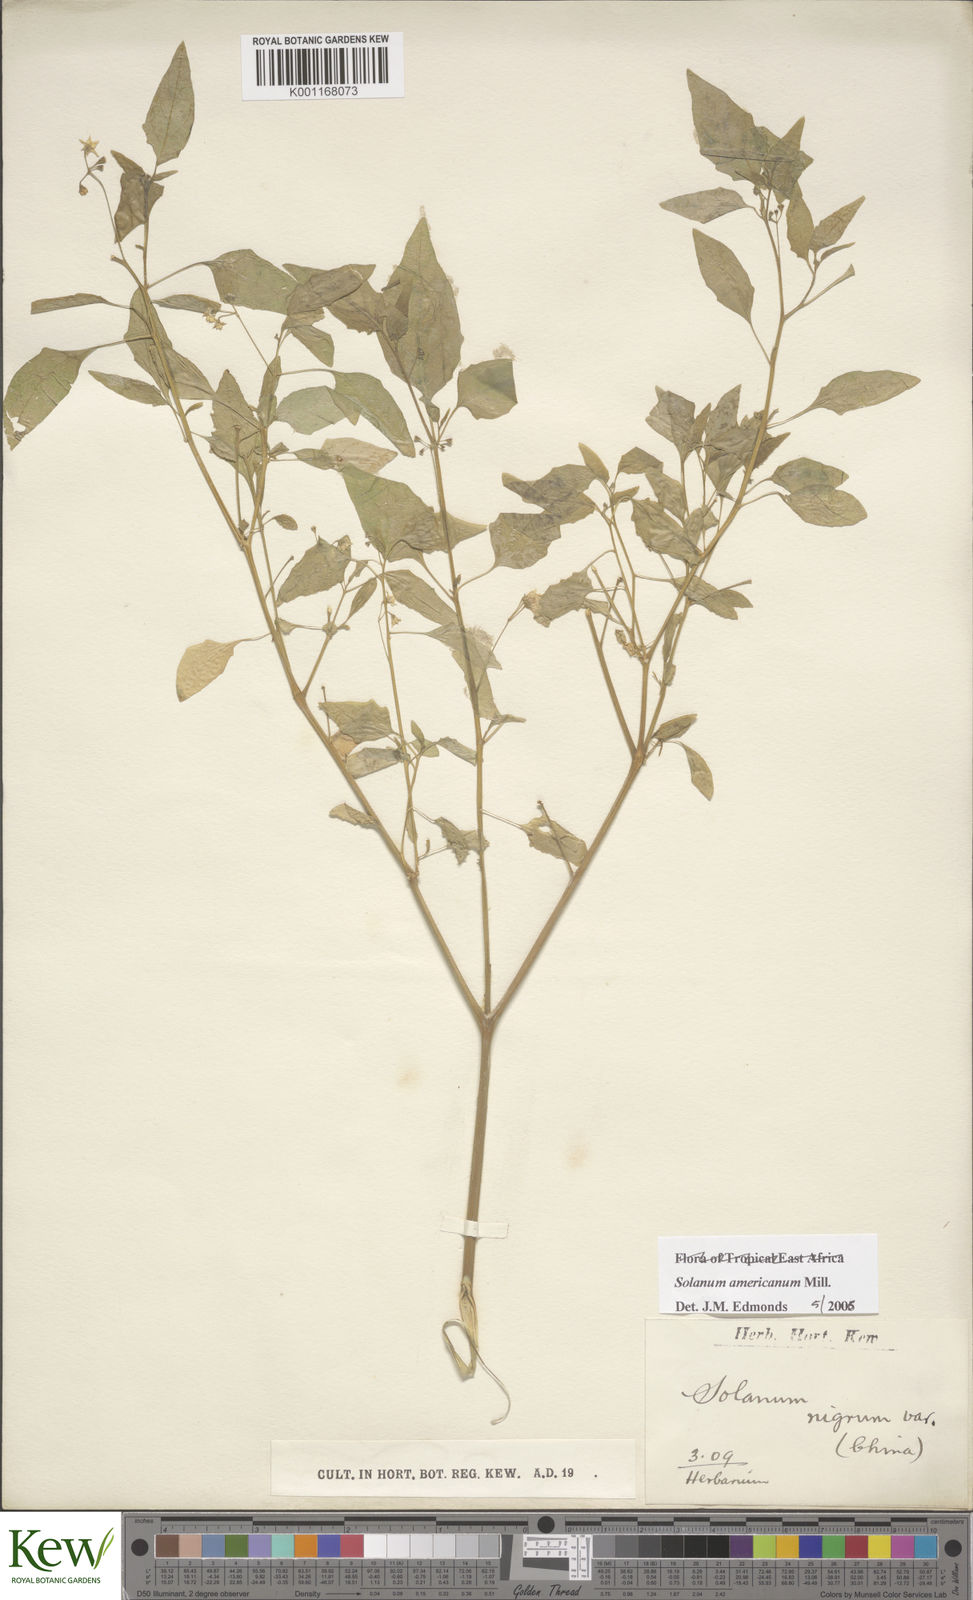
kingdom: Plantae
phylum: Tracheophyta
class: Magnoliopsida
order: Solanales
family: Solanaceae
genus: Solanum
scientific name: Solanum americanum
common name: American black nightshade
